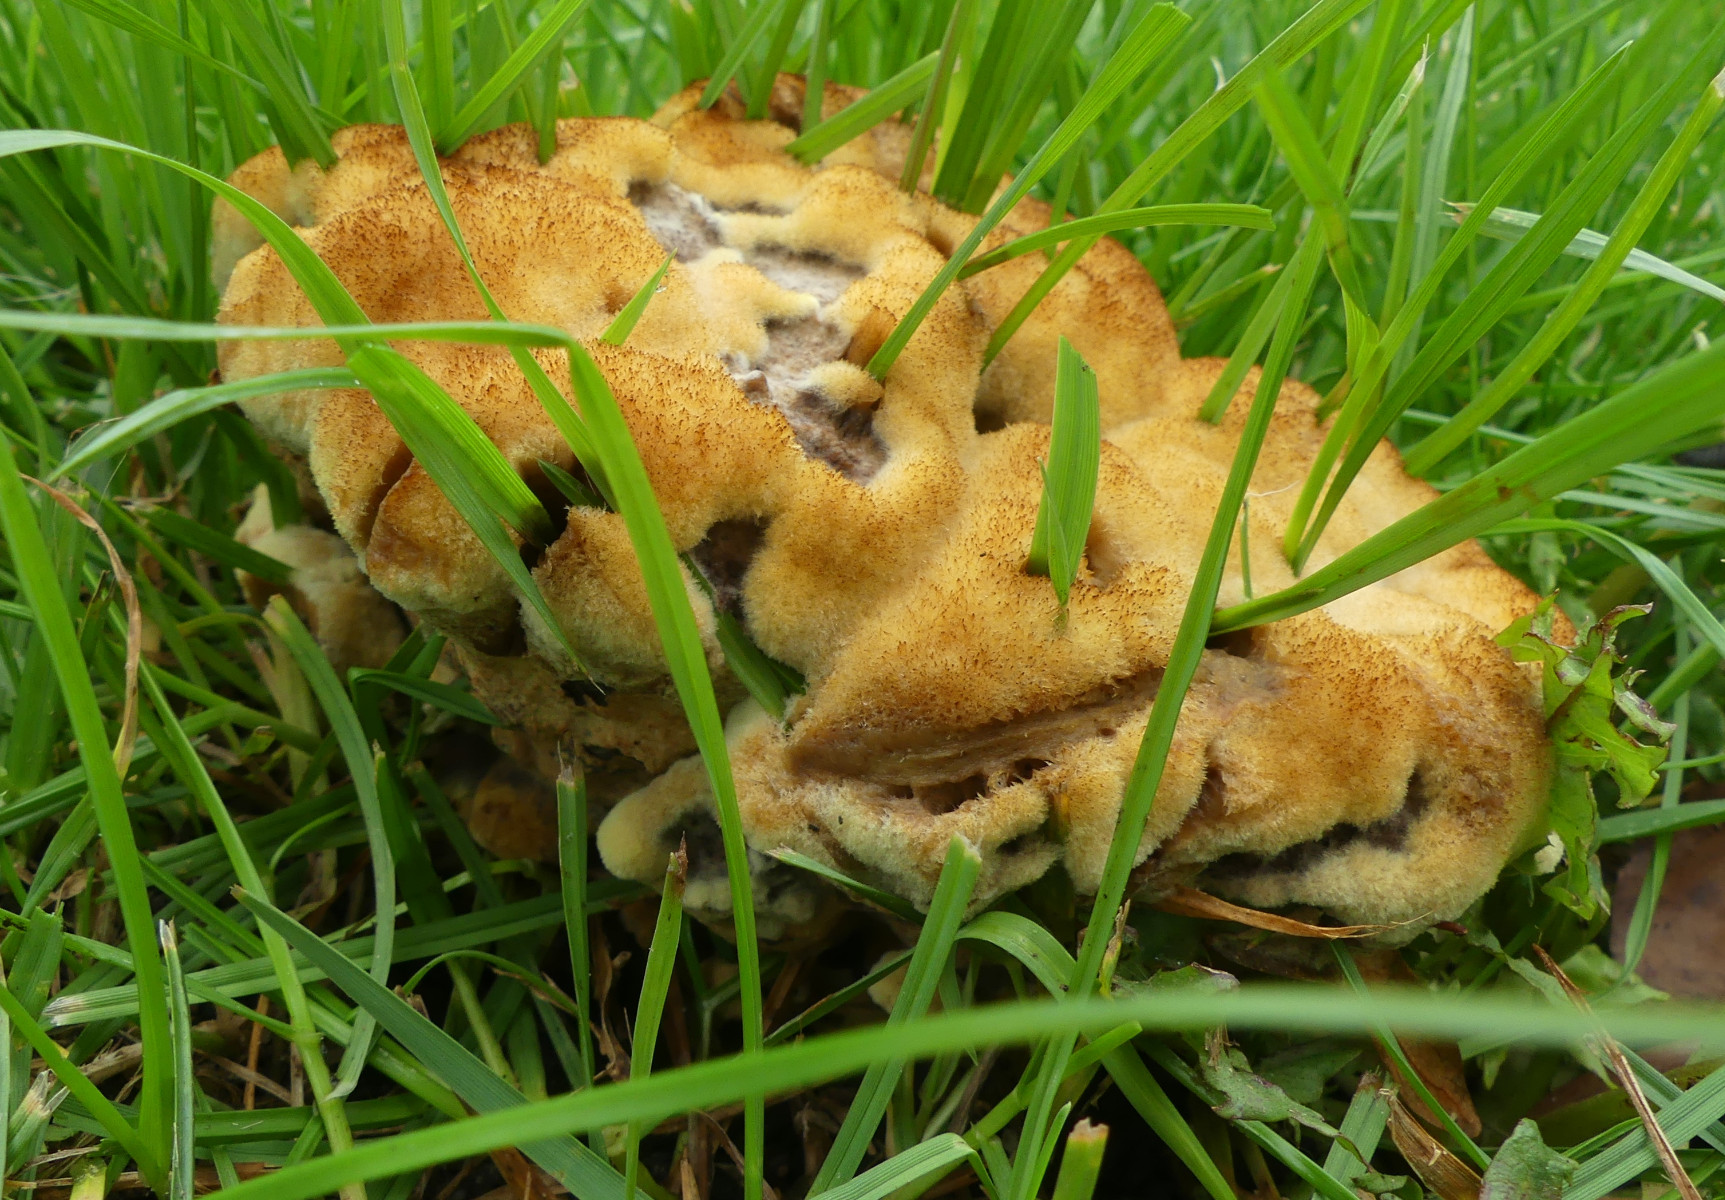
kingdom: Fungi
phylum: Basidiomycota
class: Agaricomycetes
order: Polyporales
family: Laetiporaceae
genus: Phaeolus
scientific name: Phaeolus schweinitzii
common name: brunporesvamp
